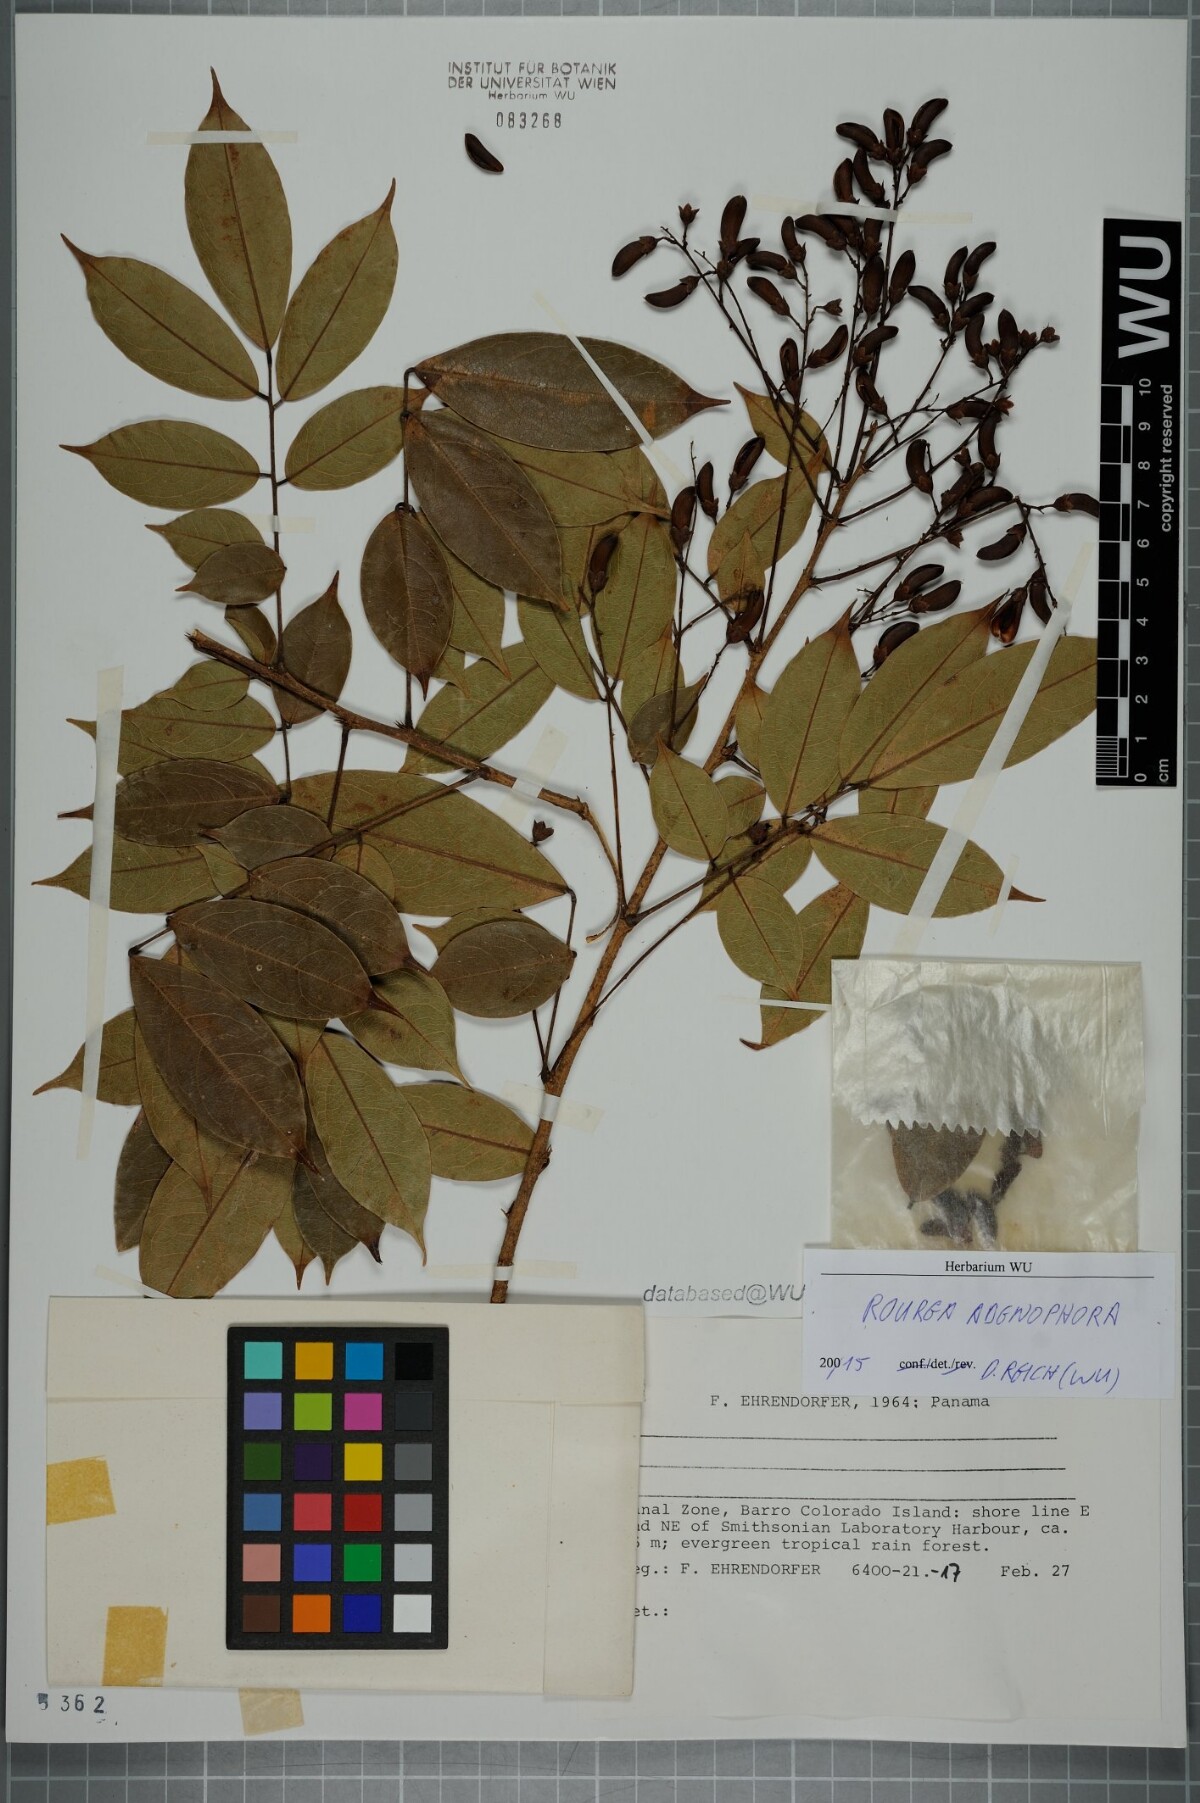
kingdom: Plantae
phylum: Tracheophyta
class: Magnoliopsida
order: Oxalidales
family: Connaraceae
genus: Rourea
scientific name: Rourea adenophora
